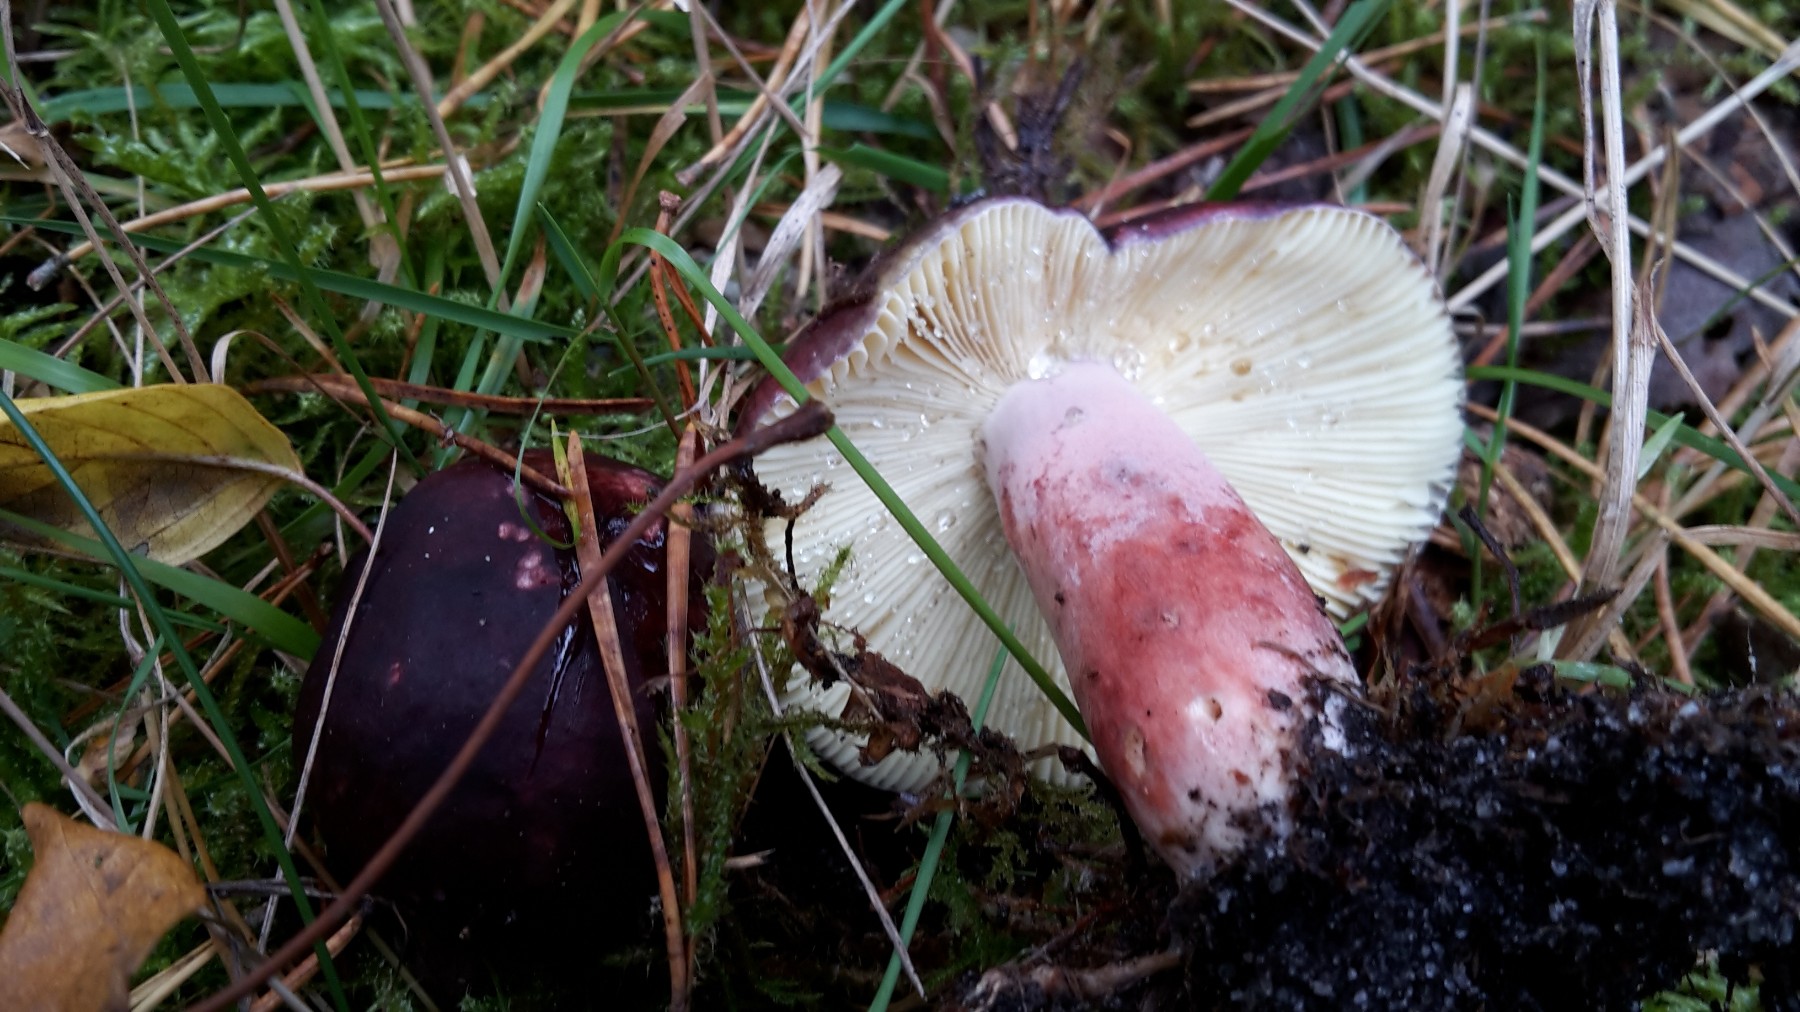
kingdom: Fungi
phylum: Basidiomycota
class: Agaricomycetes
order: Russulales
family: Russulaceae
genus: Russula
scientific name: Russula sardonia
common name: citronbladet skørhat
